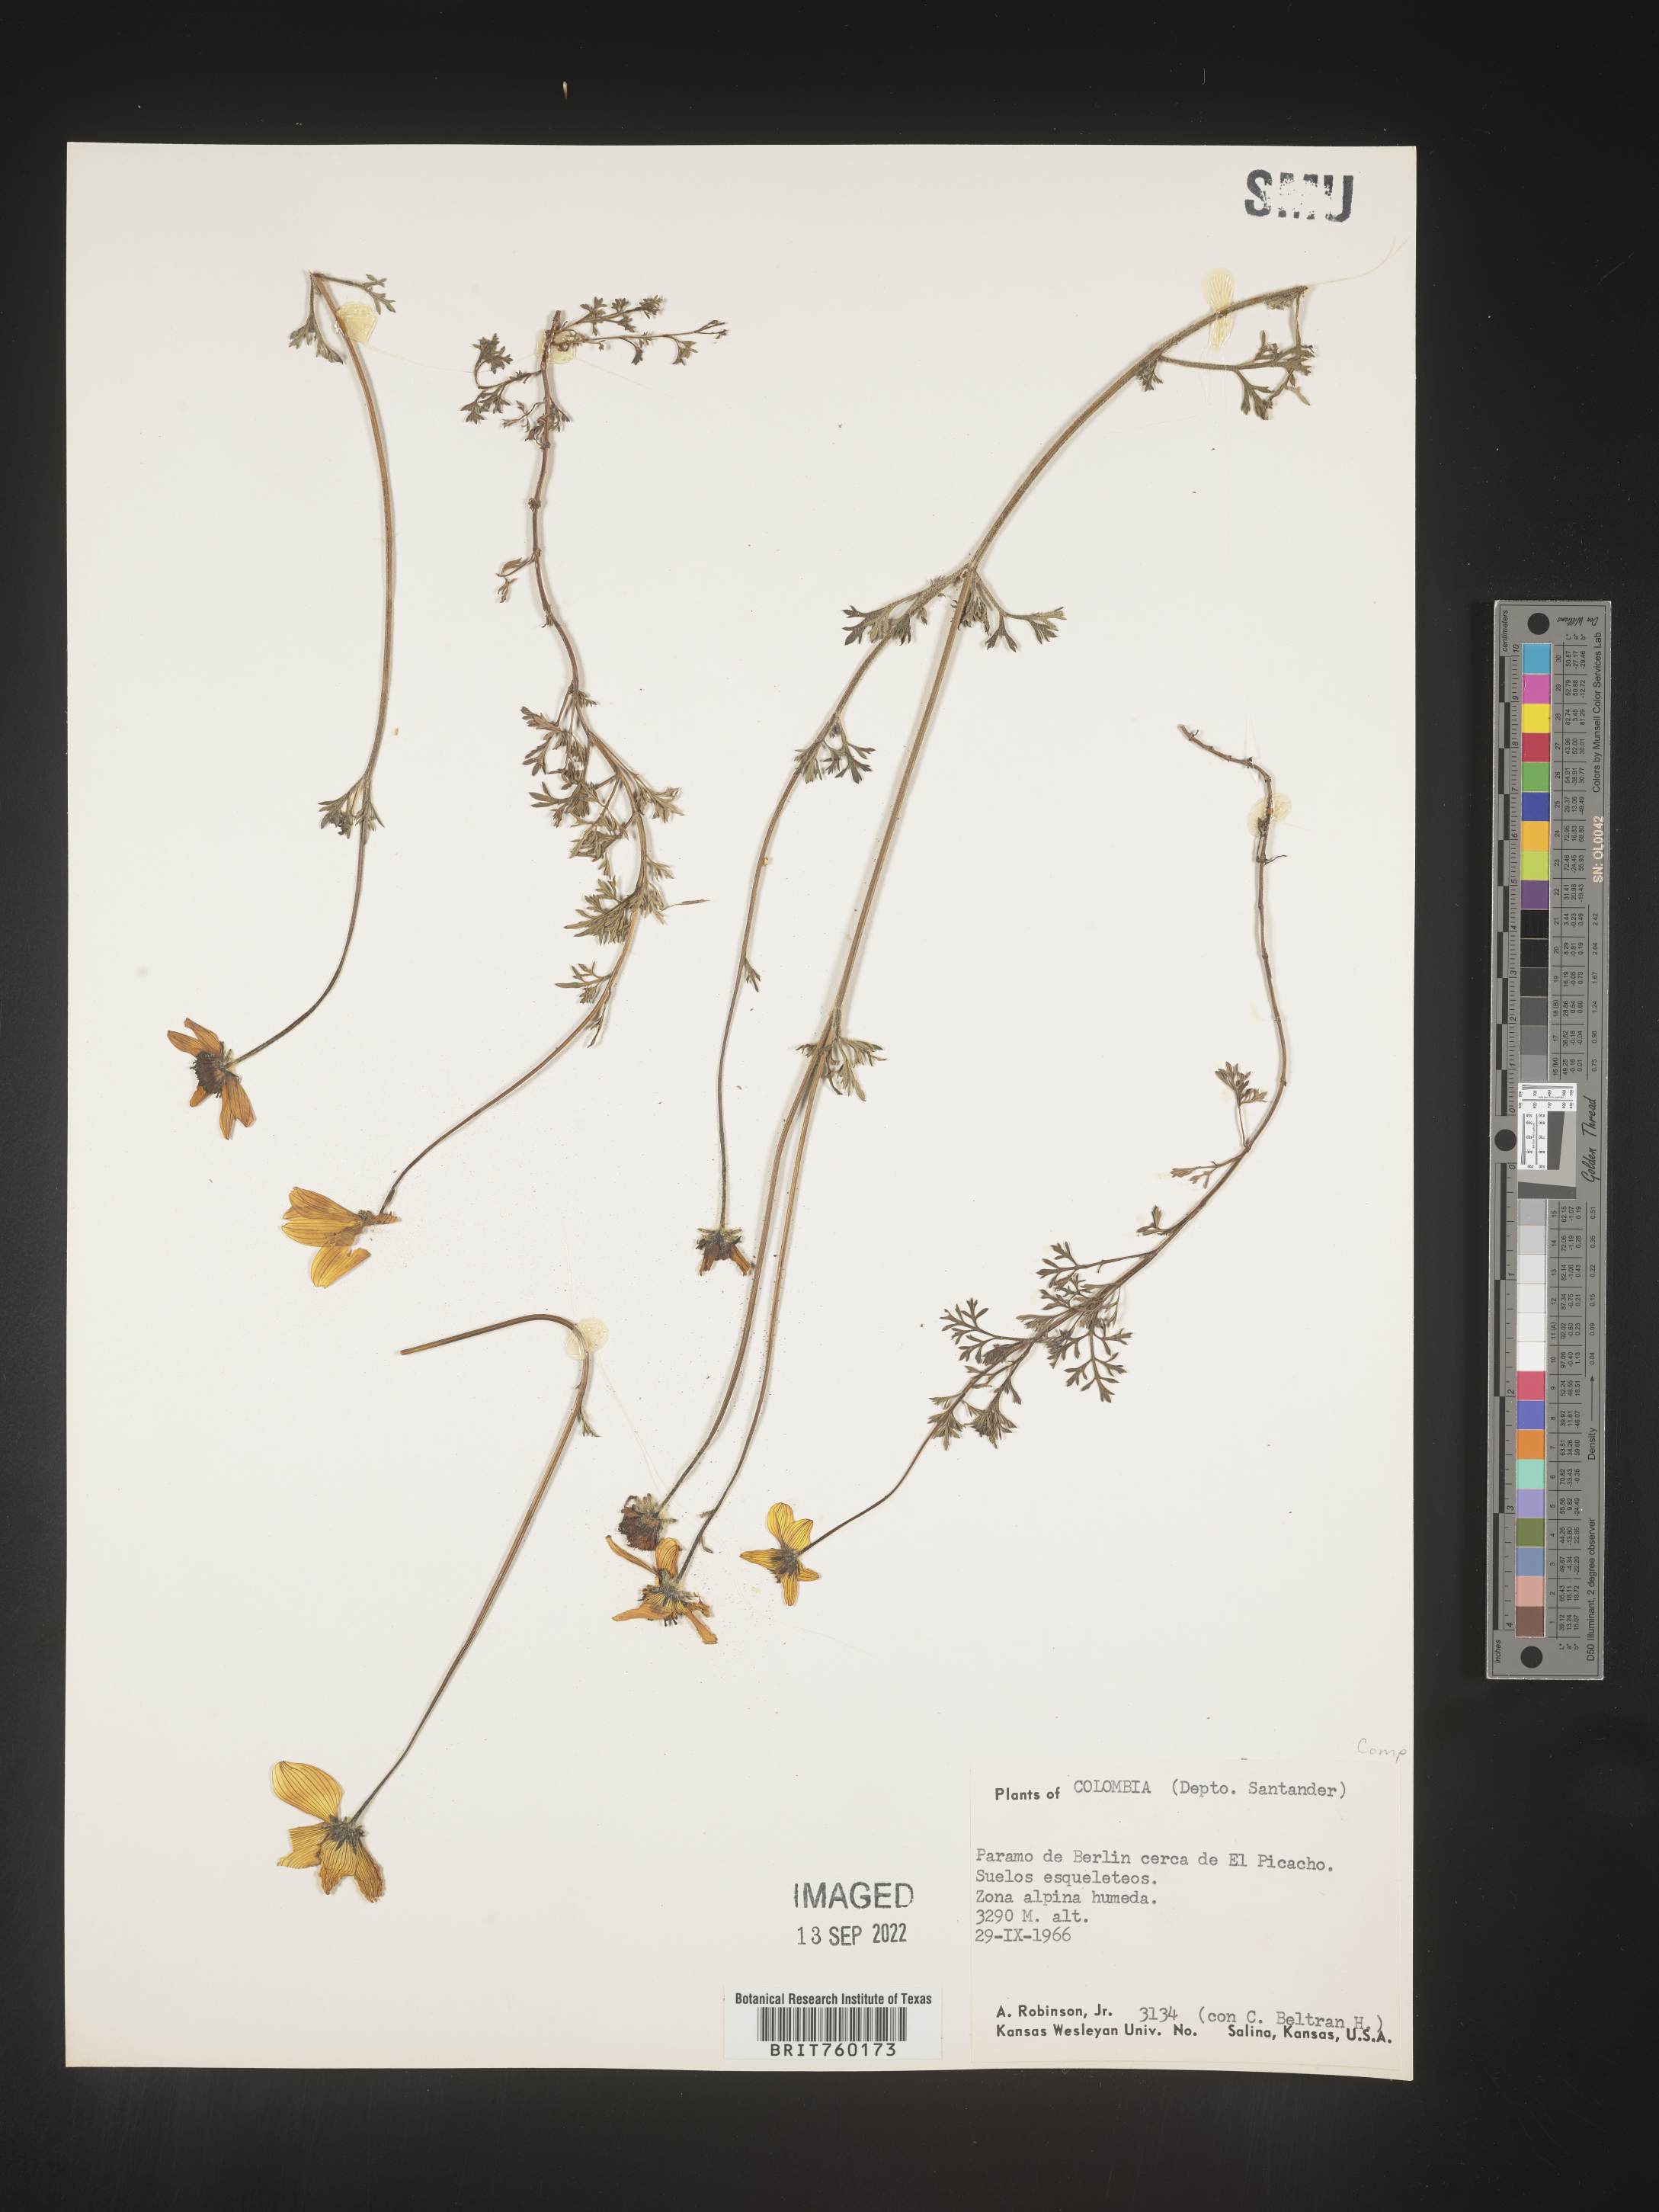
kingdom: Plantae
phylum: Tracheophyta
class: Magnoliopsida
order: Asterales
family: Asteraceae
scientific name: Asteraceae
